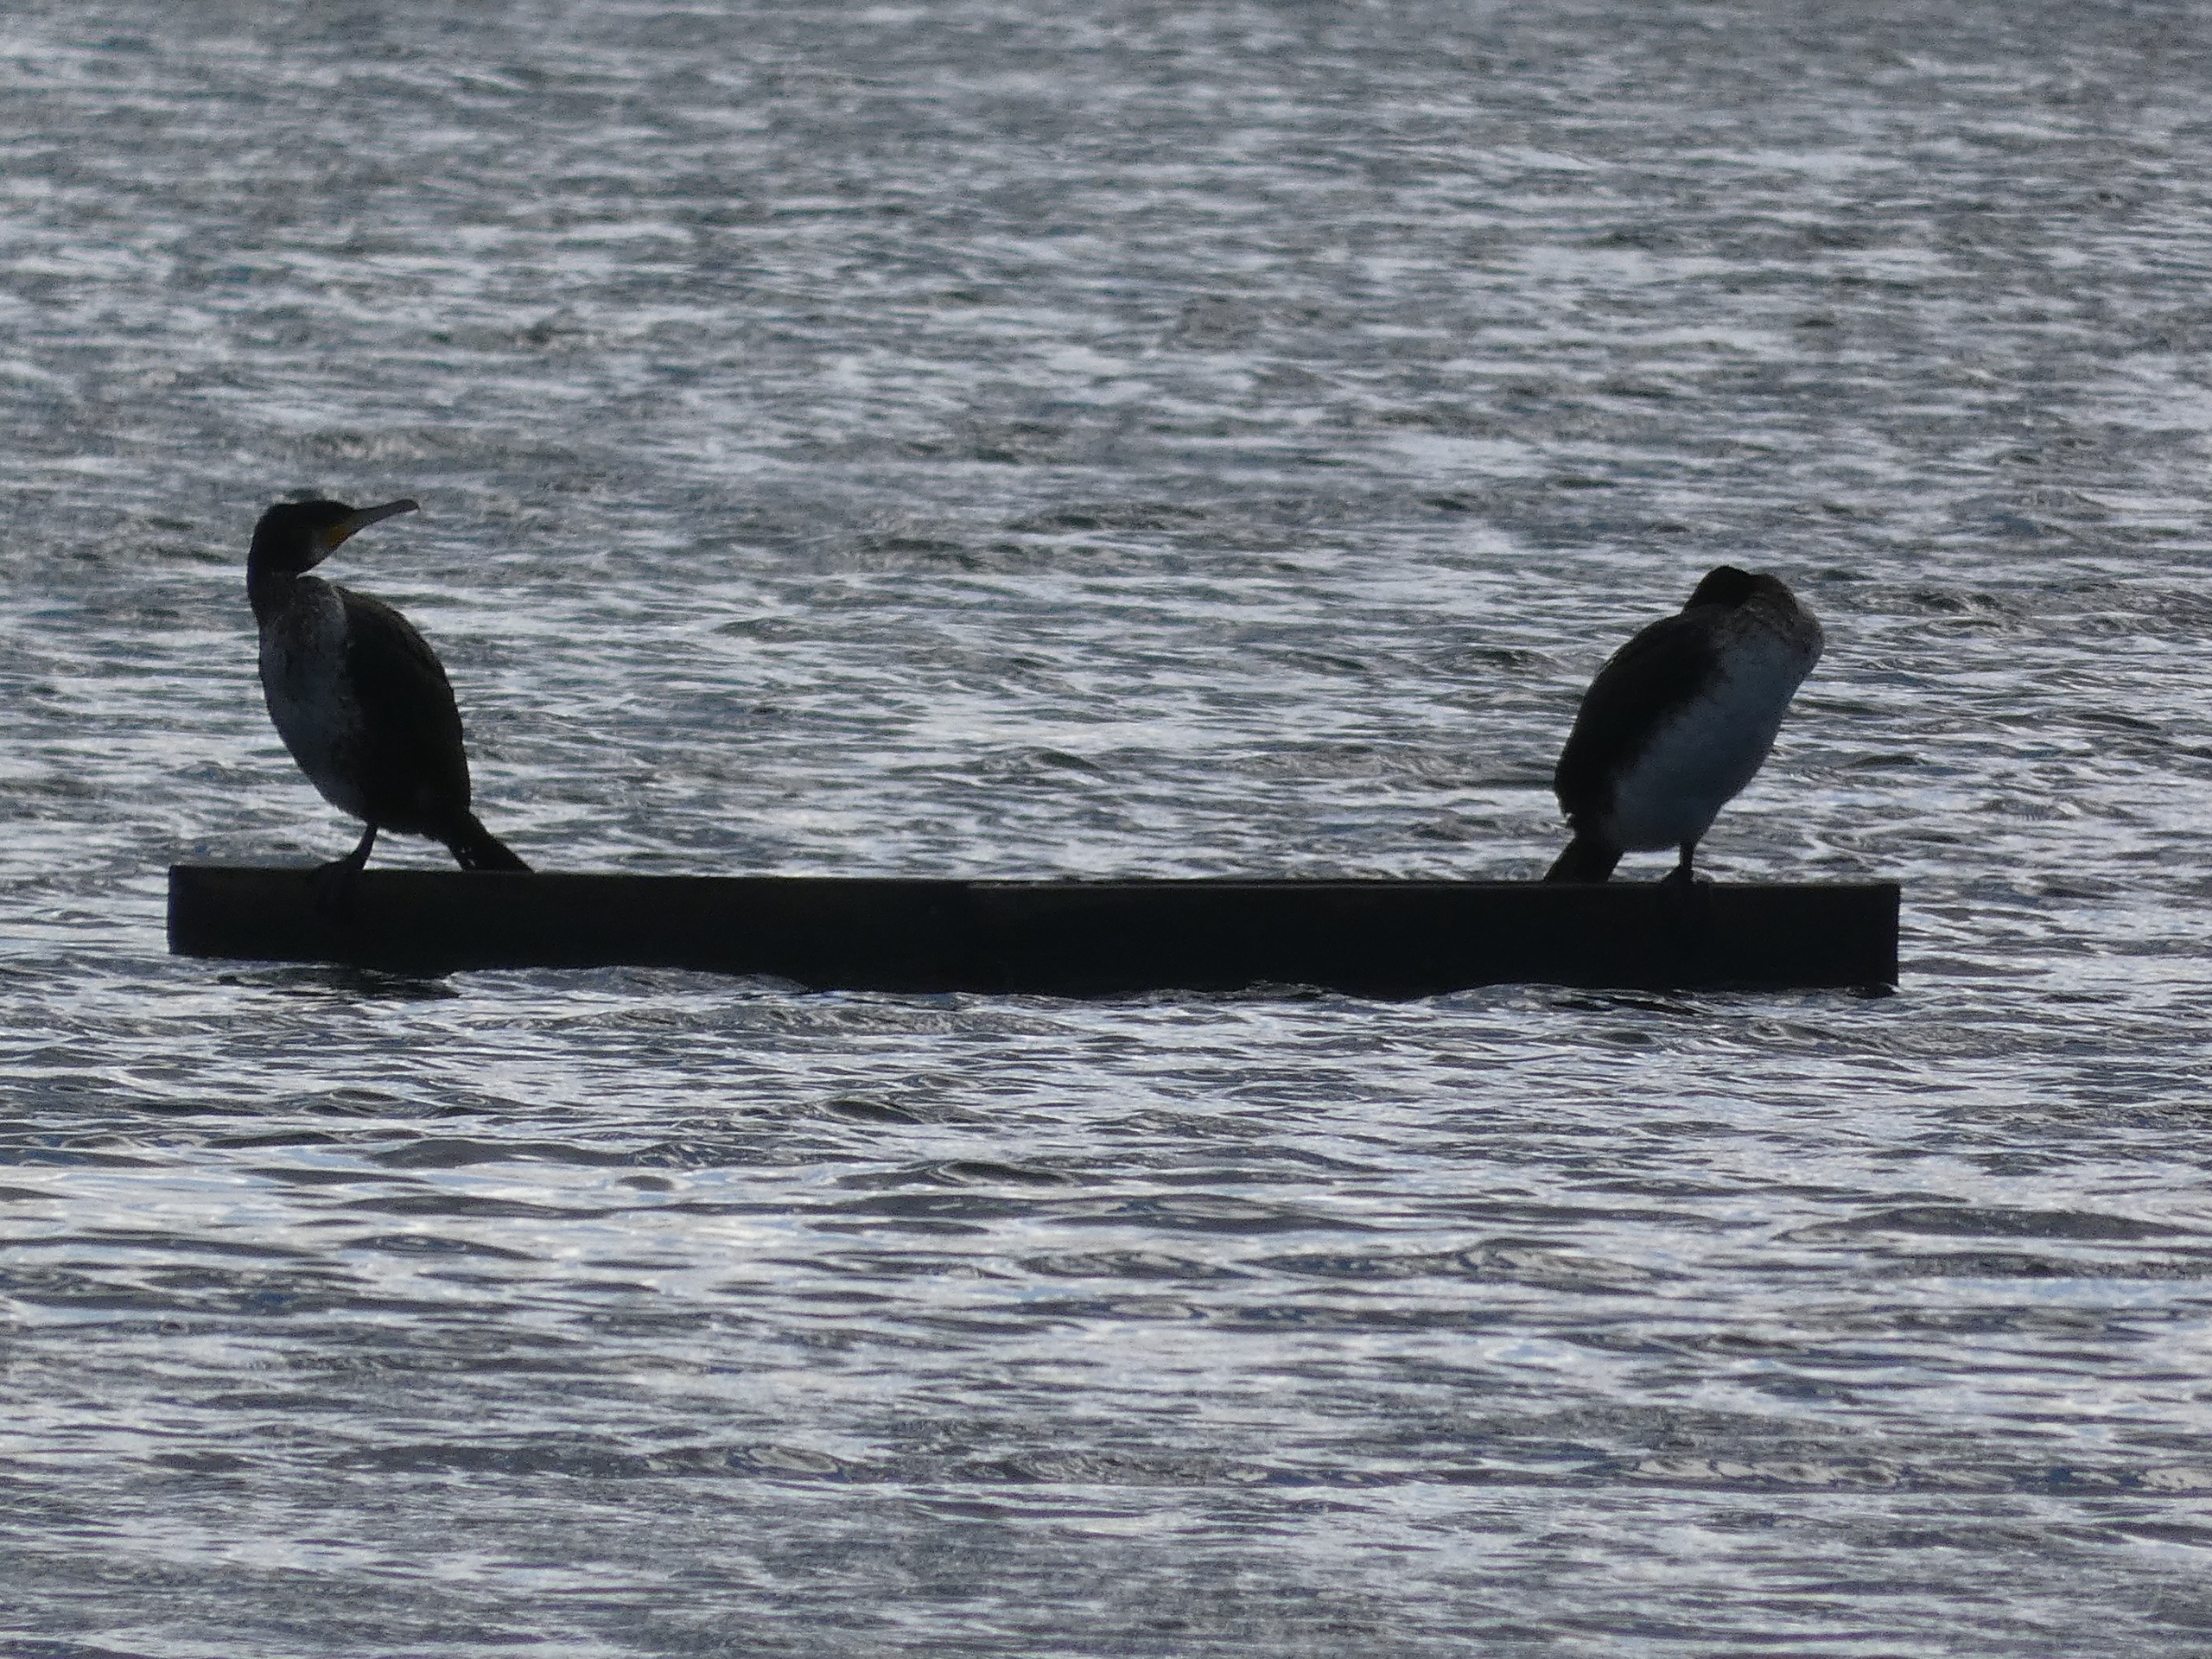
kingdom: Animalia
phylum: Chordata
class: Aves
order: Suliformes
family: Phalacrocoracidae
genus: Phalacrocorax
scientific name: Phalacrocorax carbo
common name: Skarv
